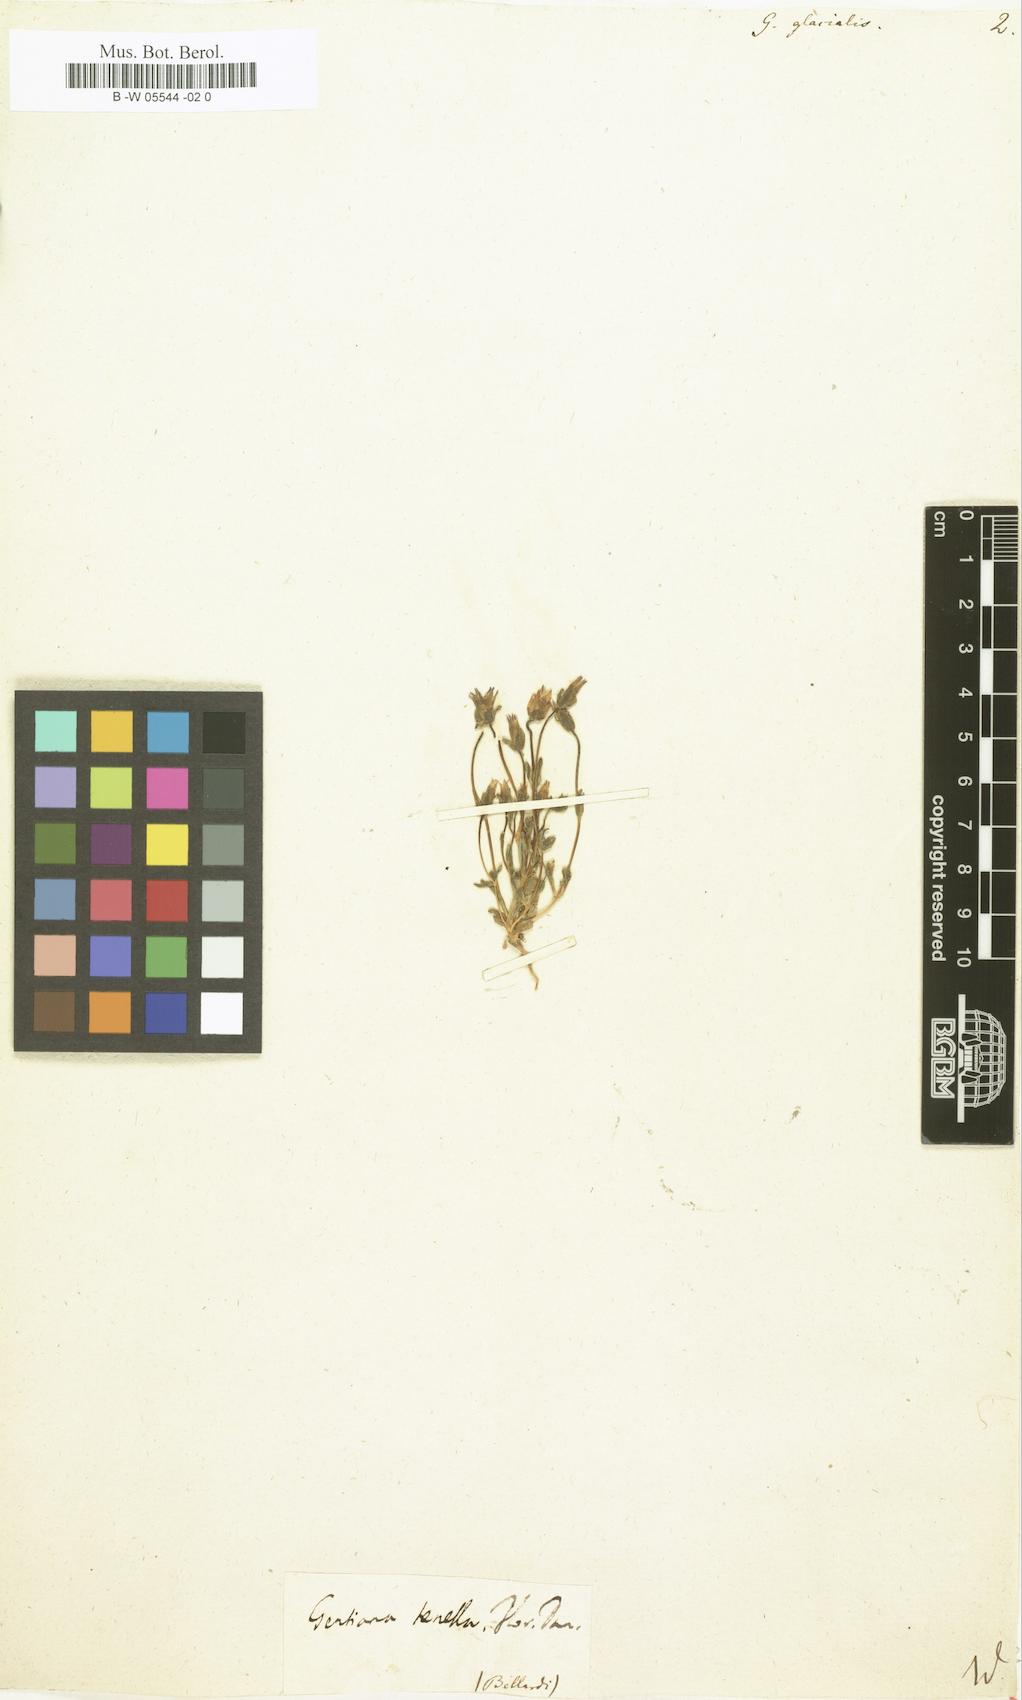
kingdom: Plantae
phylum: Tracheophyta
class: Magnoliopsida
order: Gentianales
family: Gentianaceae
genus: Comastoma
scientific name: Comastoma tenellum
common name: Dane's dwarf gentian
